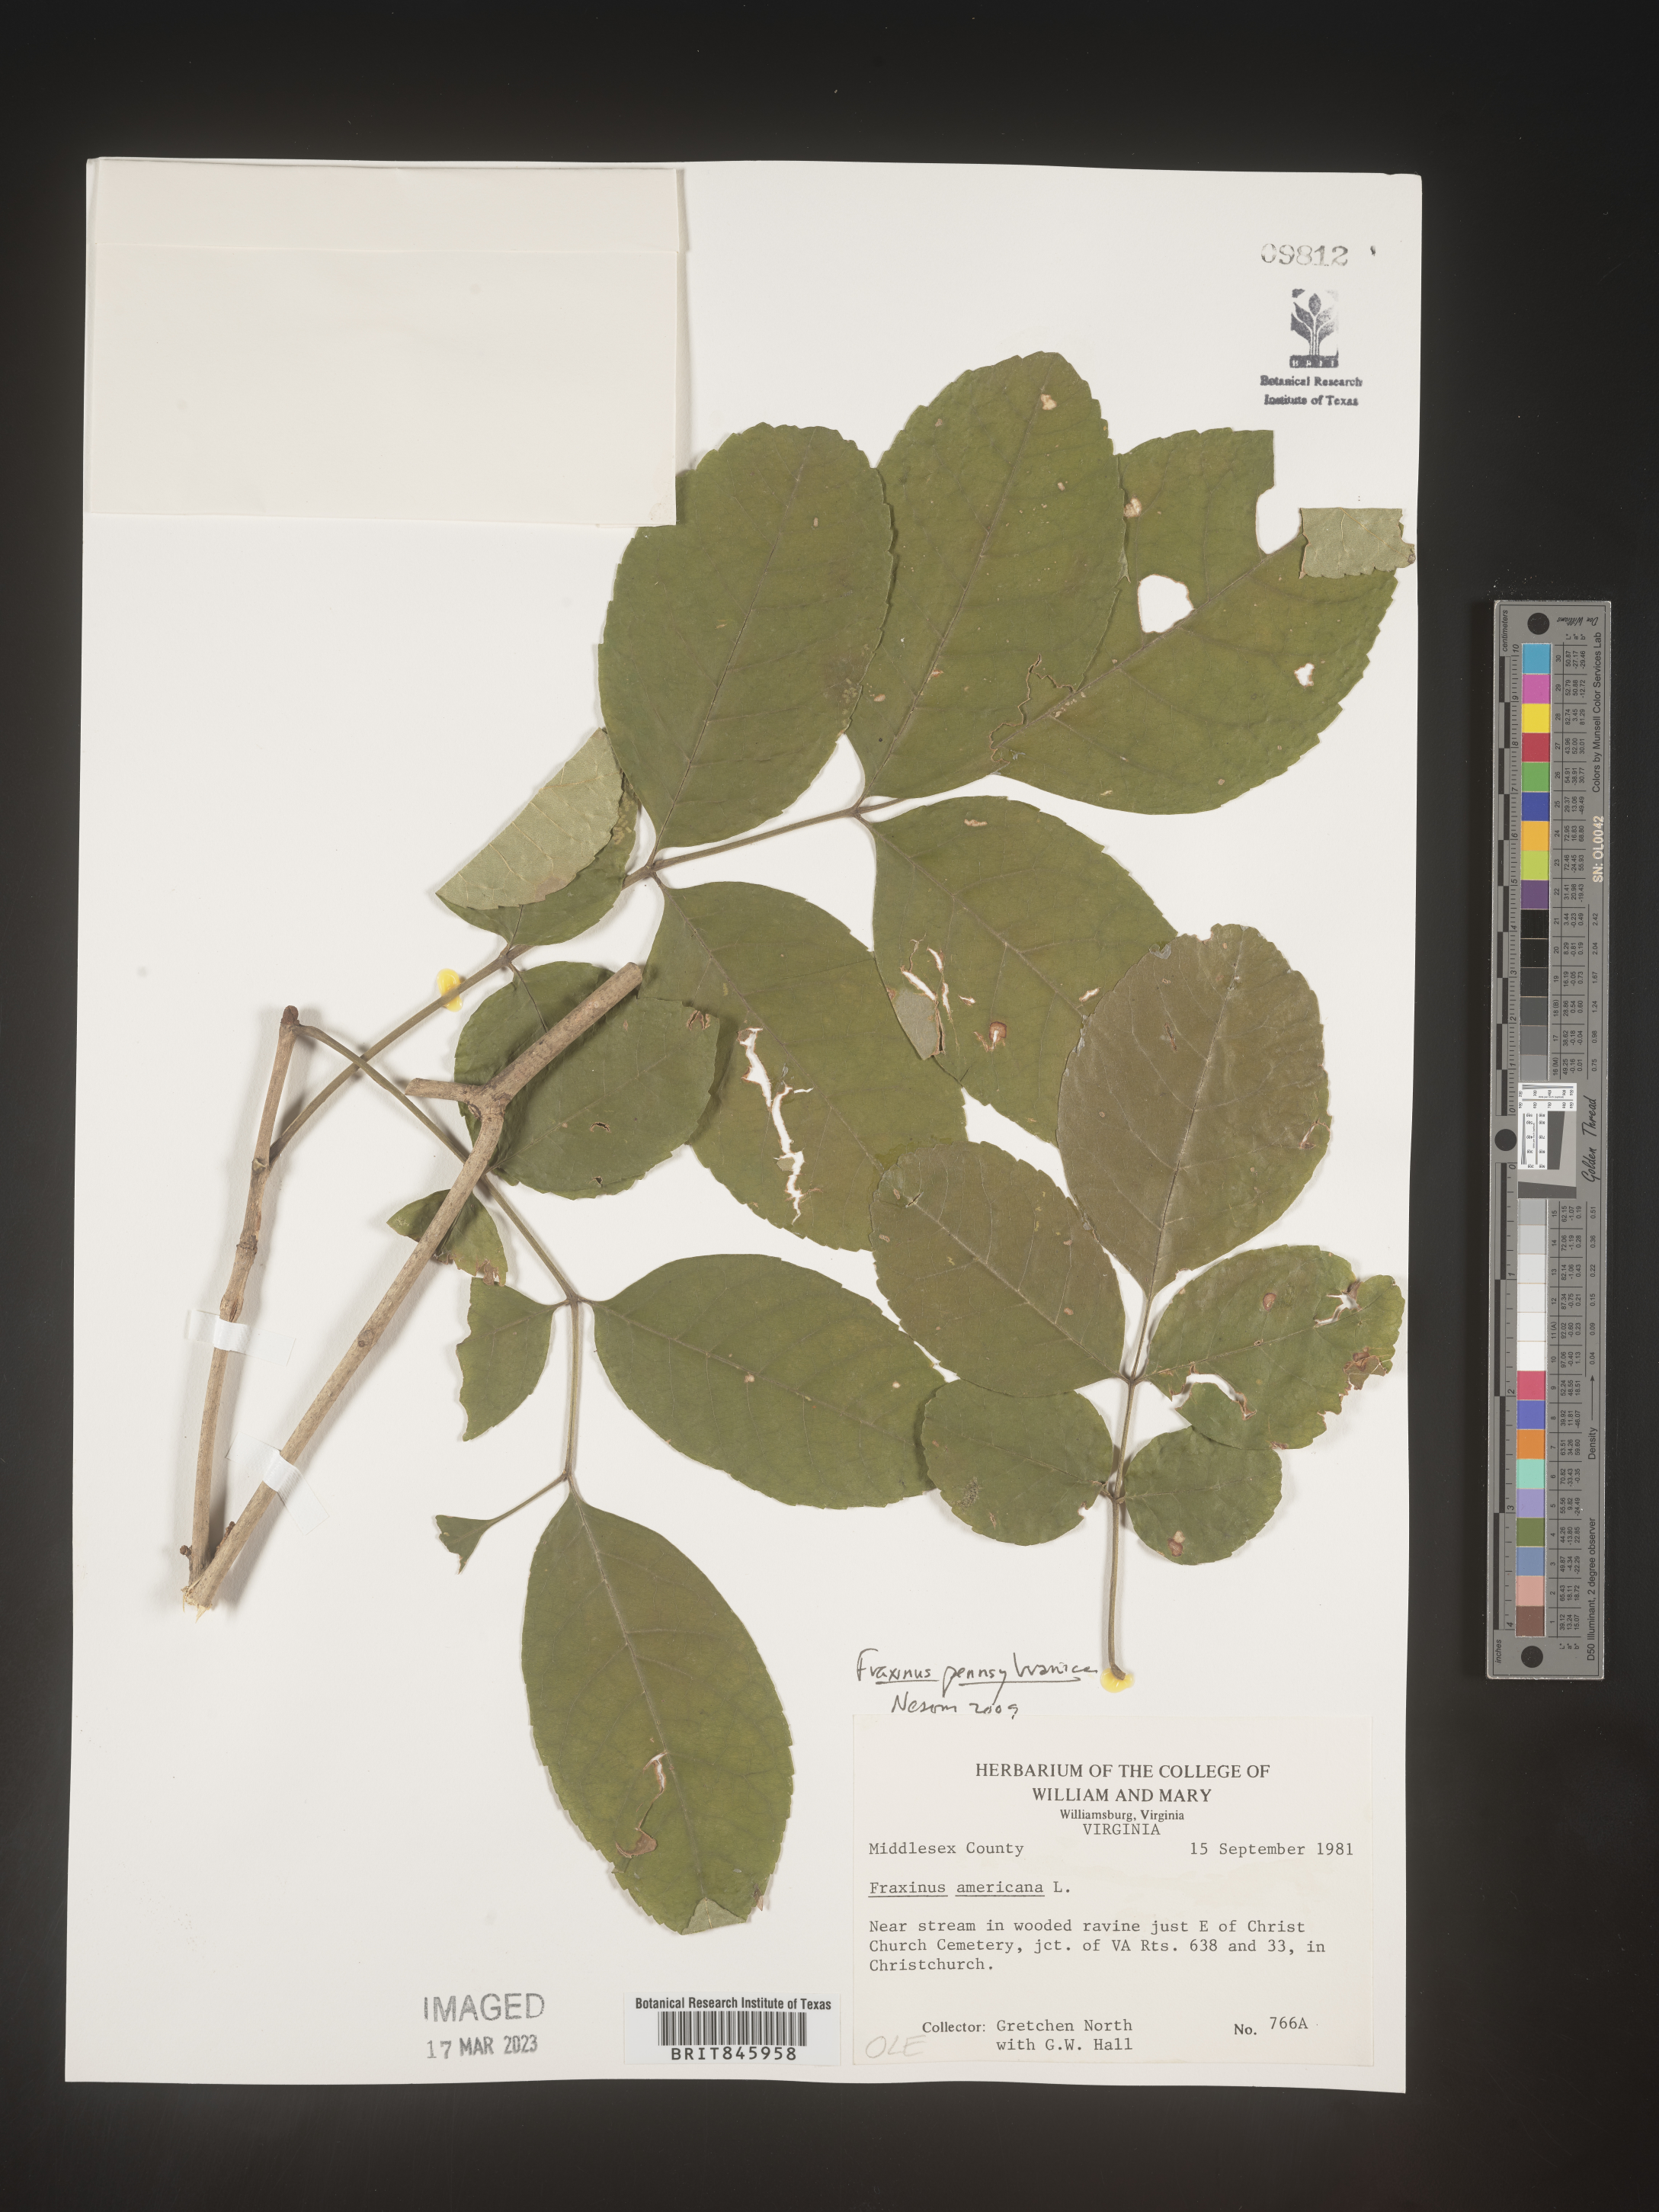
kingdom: Plantae
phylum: Tracheophyta
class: Magnoliopsida
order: Lamiales
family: Oleaceae
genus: Fraxinus
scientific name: Fraxinus
